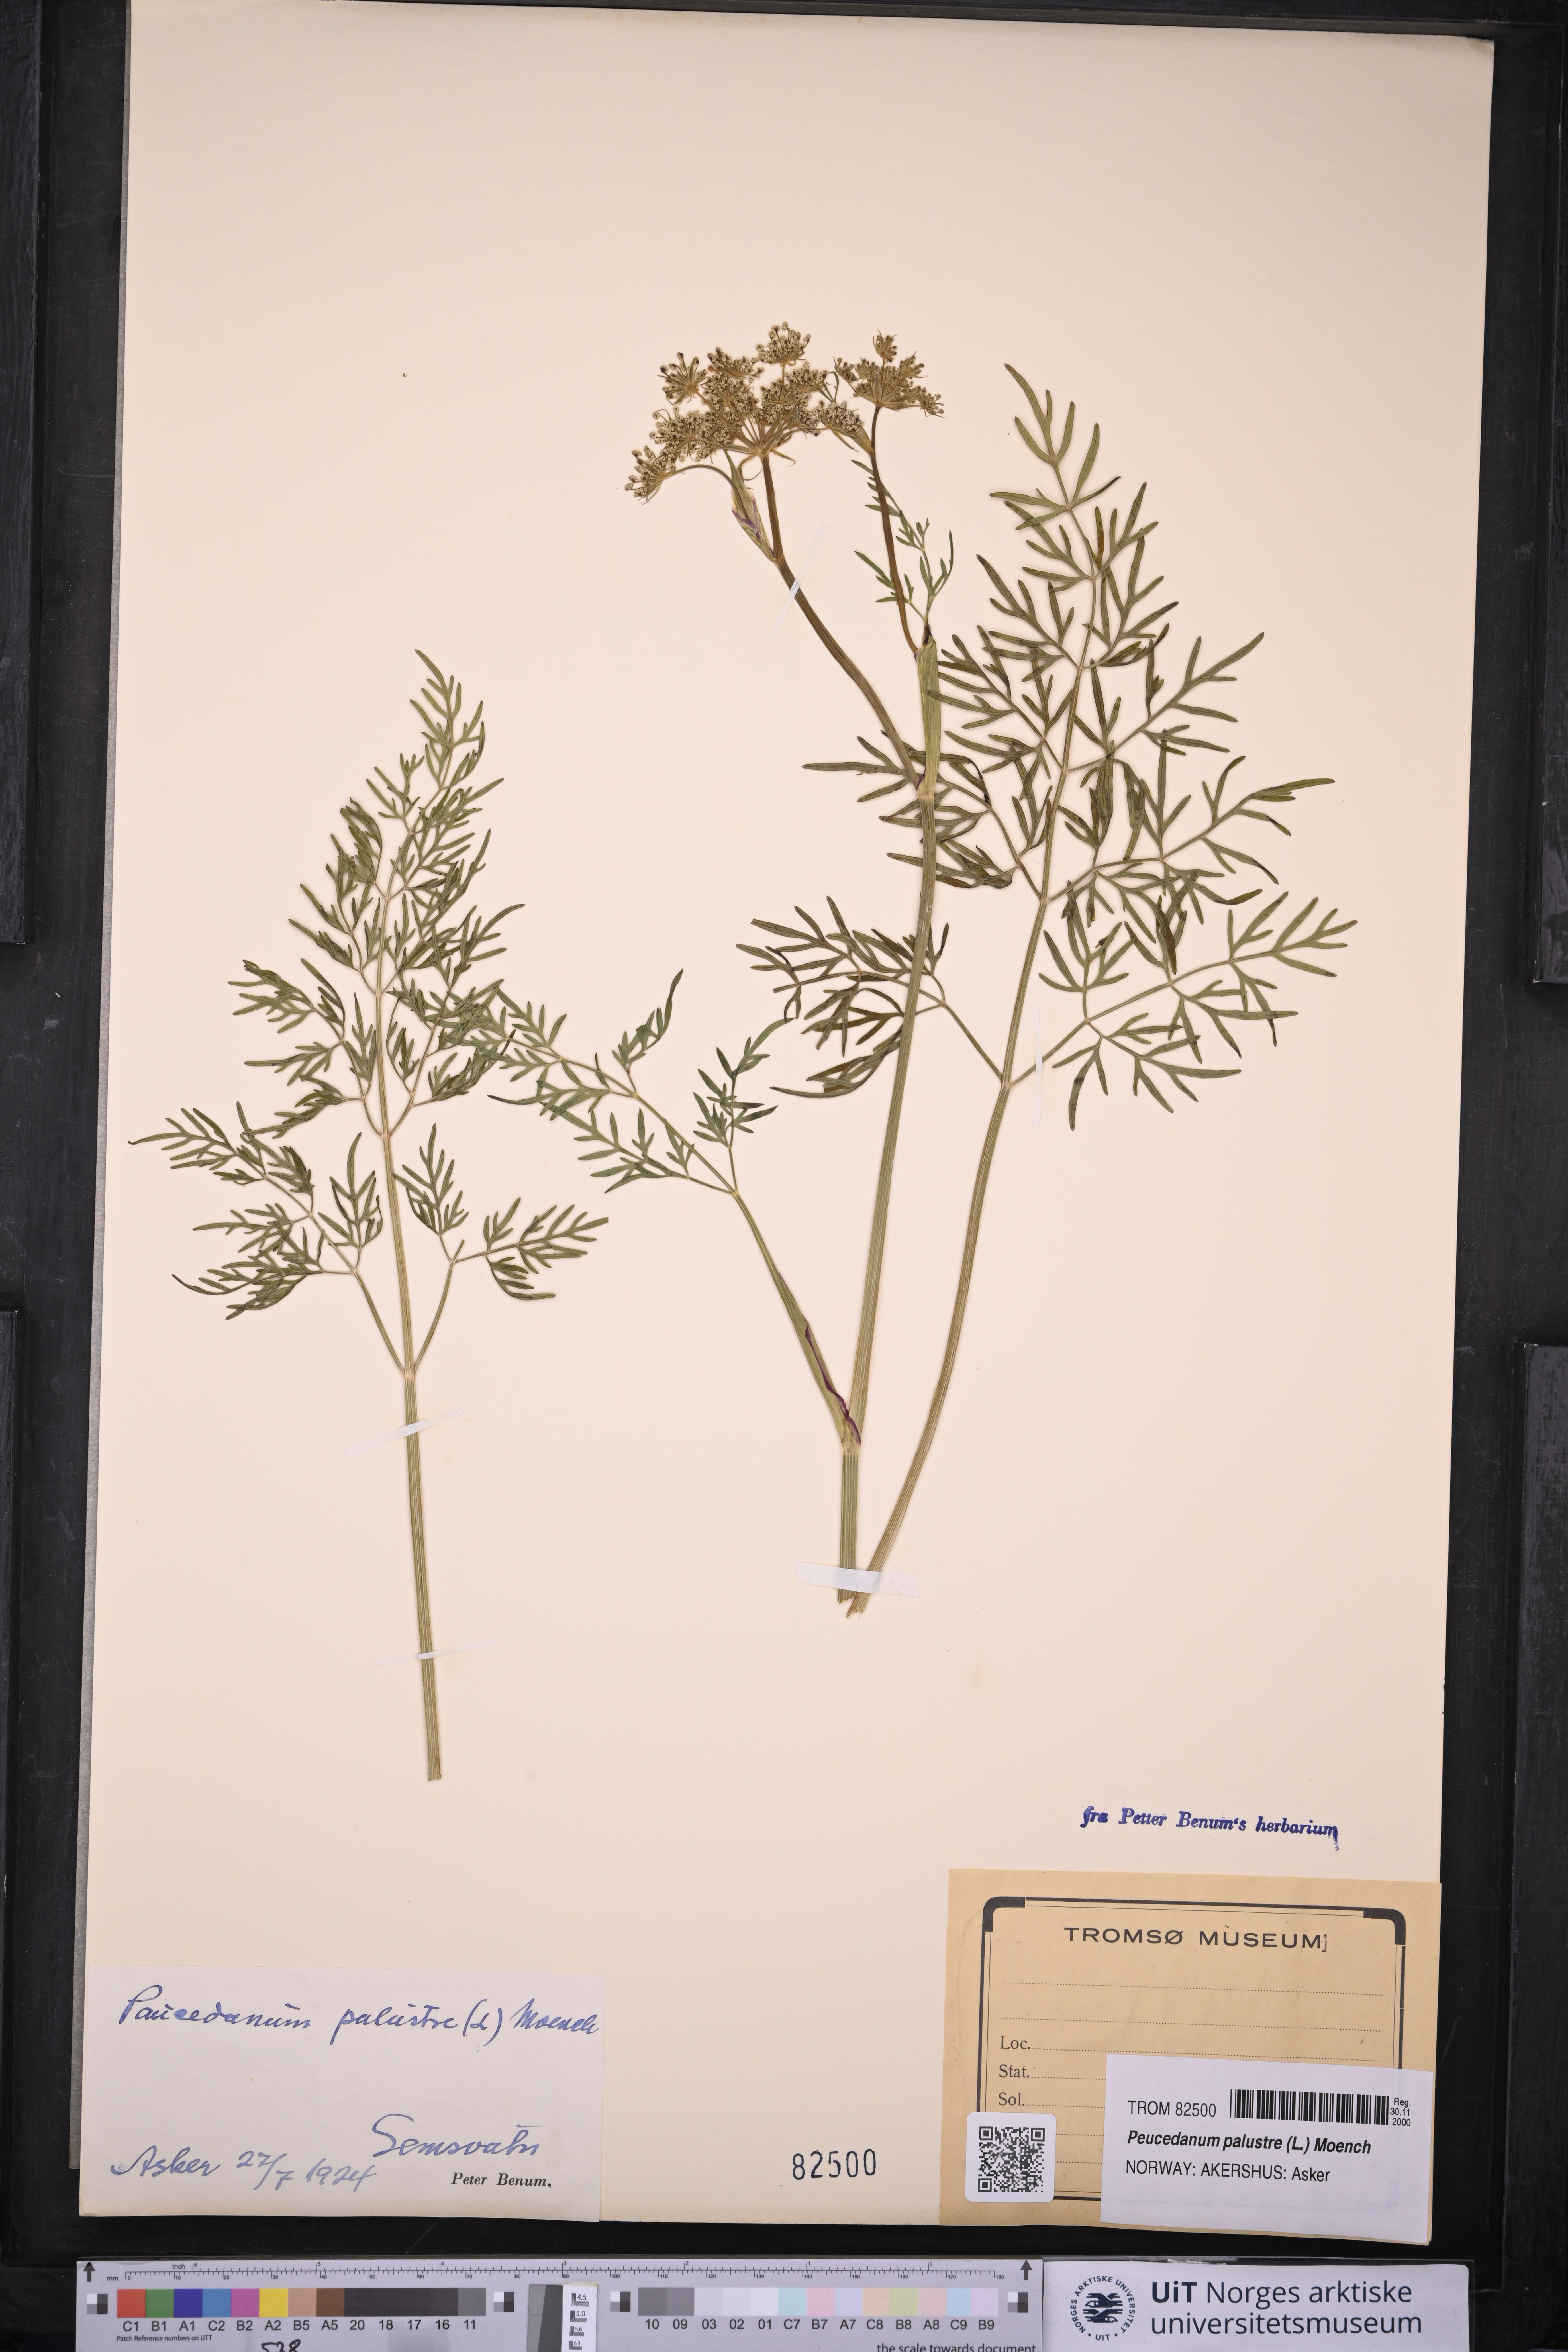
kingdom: Plantae
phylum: Tracheophyta
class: Magnoliopsida
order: Apiales
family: Apiaceae
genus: Thysselinum
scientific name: Thysselinum palustre
